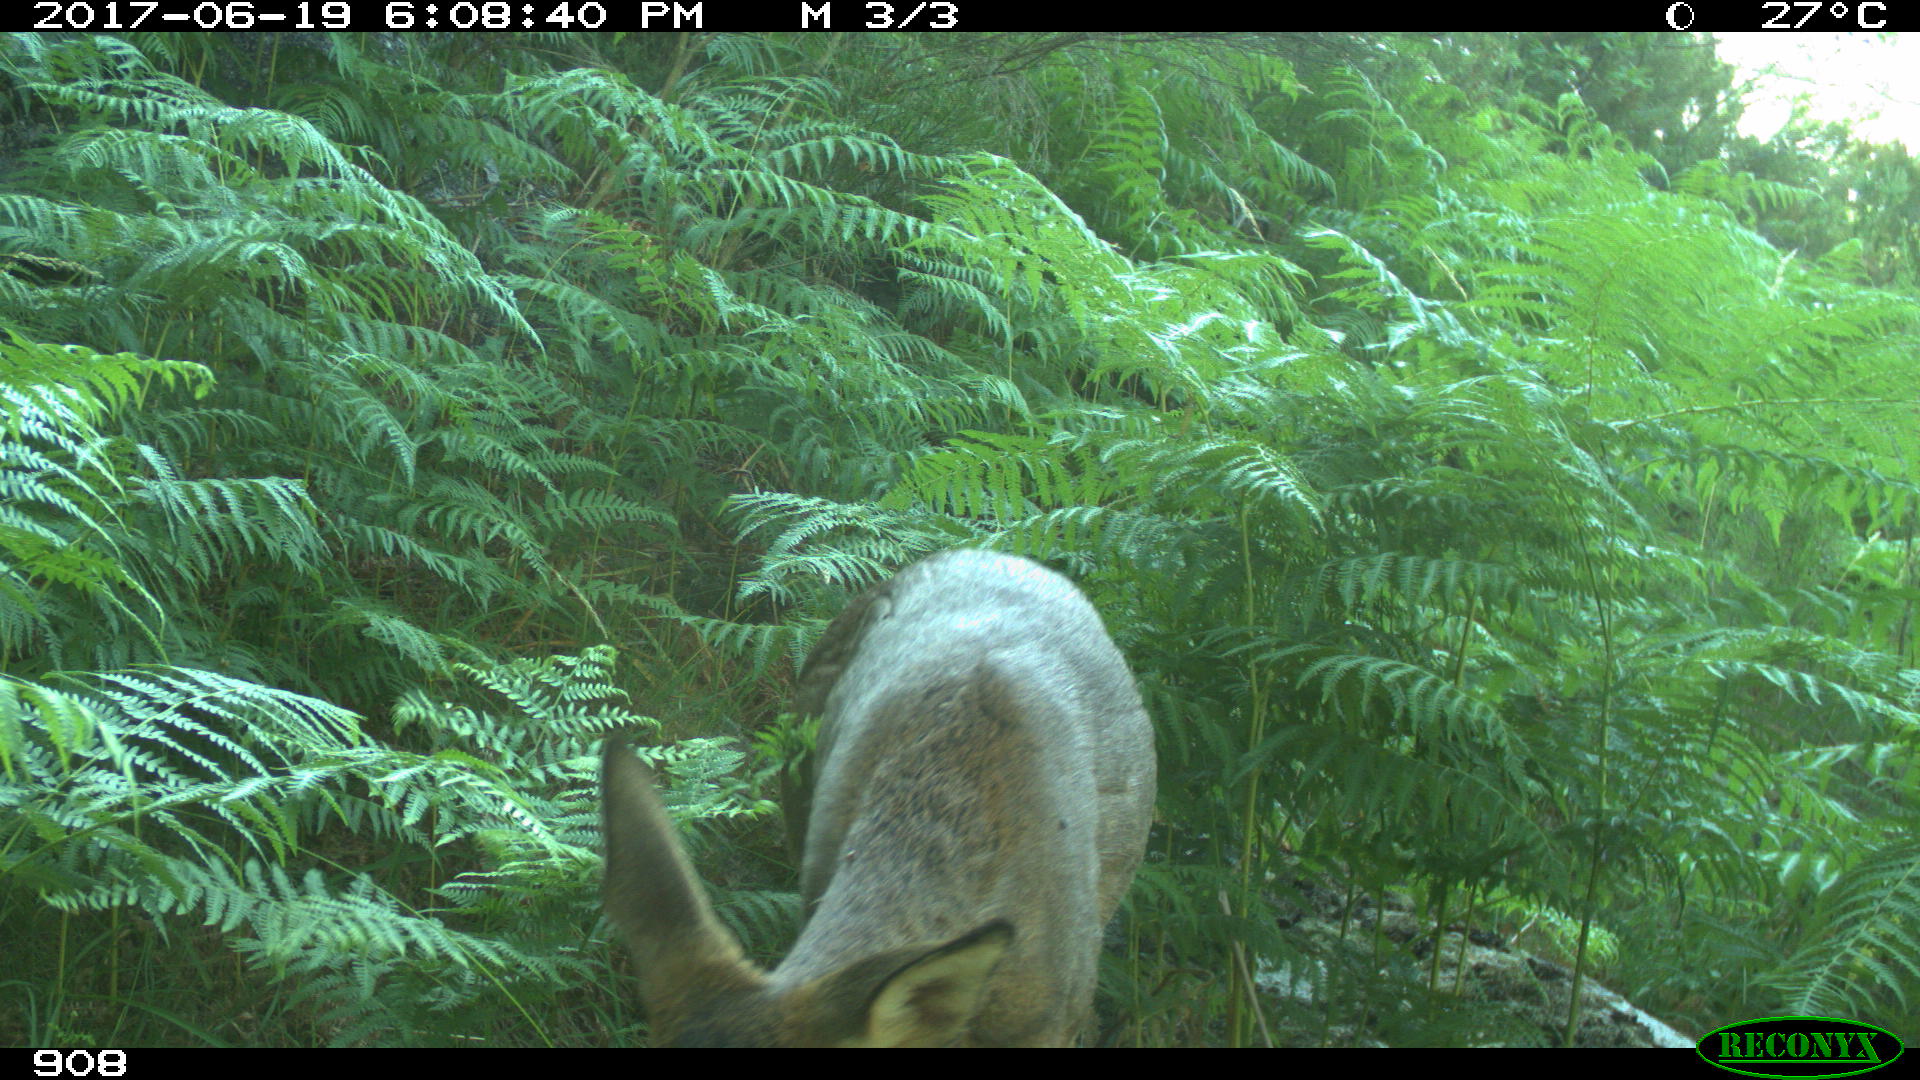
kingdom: Animalia
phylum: Chordata
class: Mammalia
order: Artiodactyla
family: Cervidae
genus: Capreolus
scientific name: Capreolus capreolus
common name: Western roe deer
